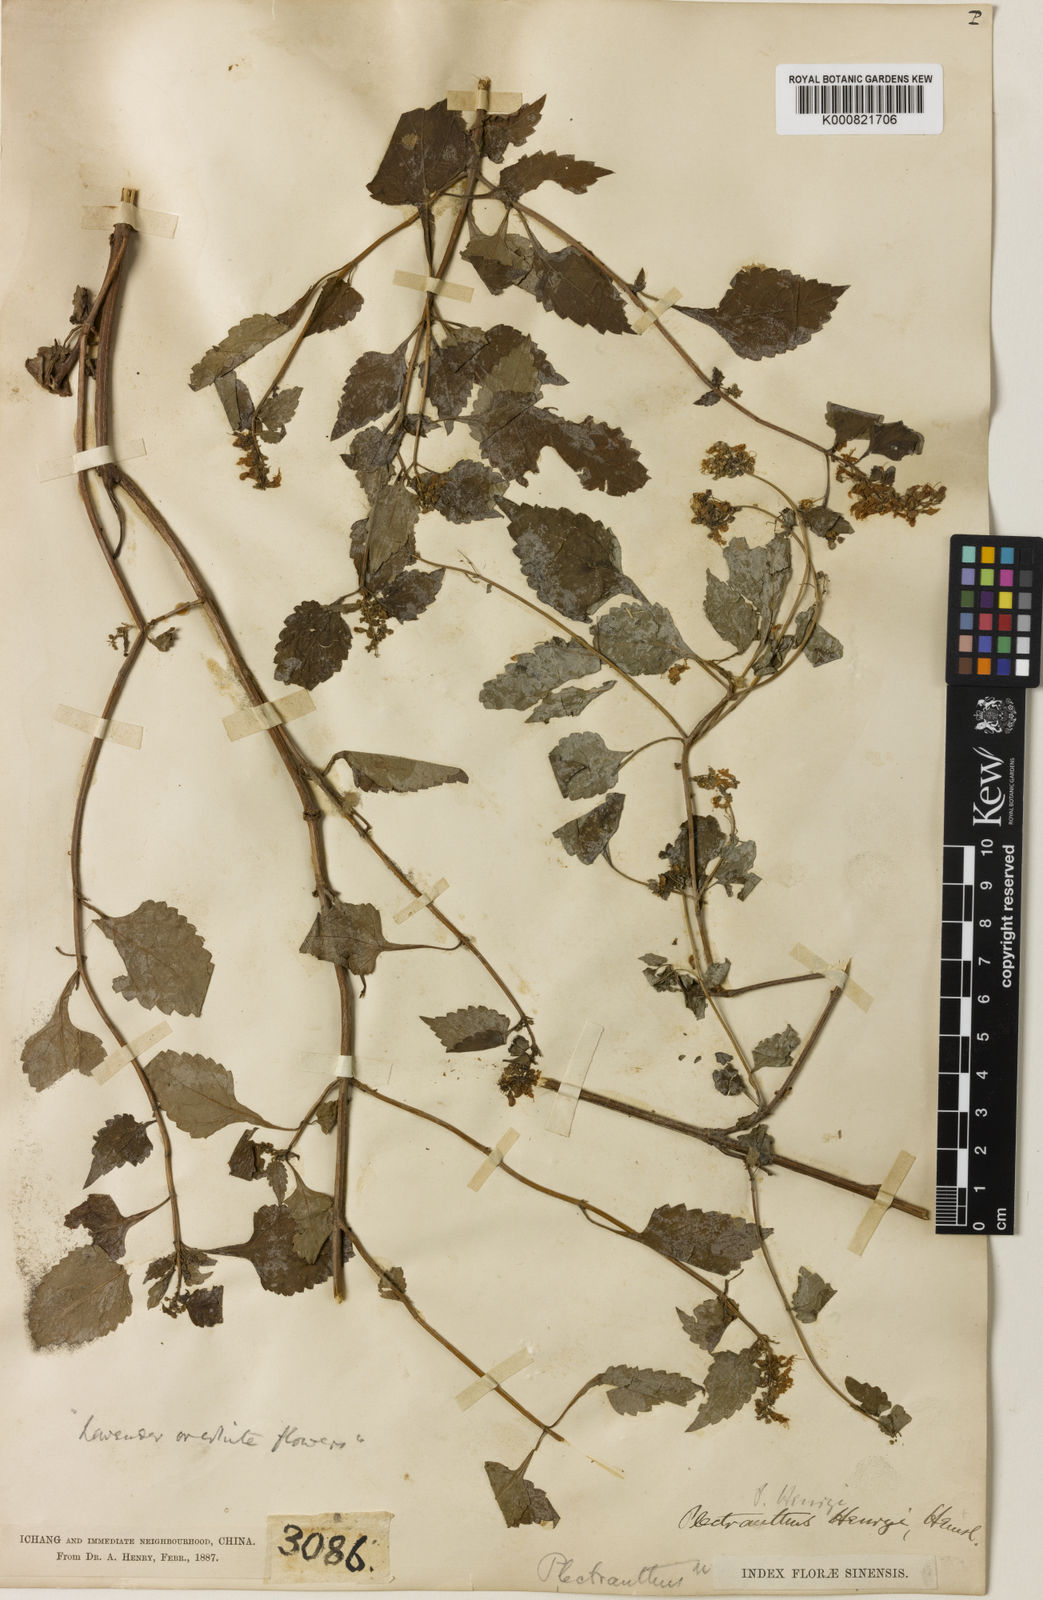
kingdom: Plantae
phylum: Tracheophyta
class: Magnoliopsida
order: Lamiales
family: Lamiaceae
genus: Isodon
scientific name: Isodon
